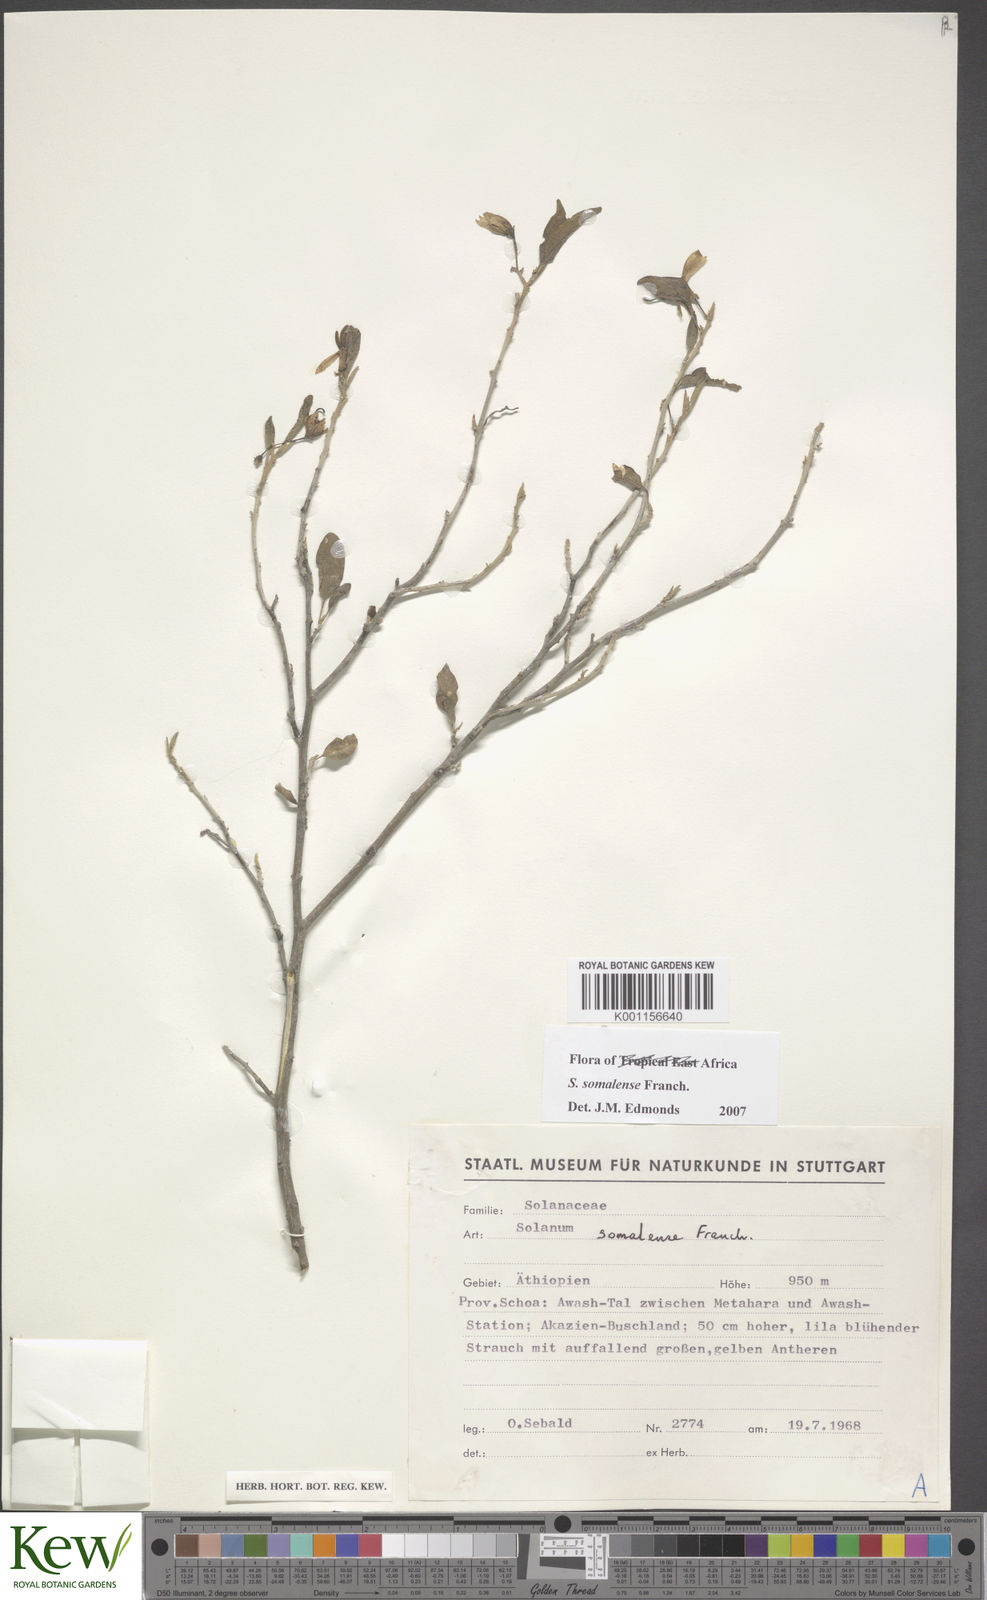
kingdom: Plantae
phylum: Tracheophyta
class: Magnoliopsida
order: Solanales
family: Solanaceae
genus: Solanum
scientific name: Solanum somalense
